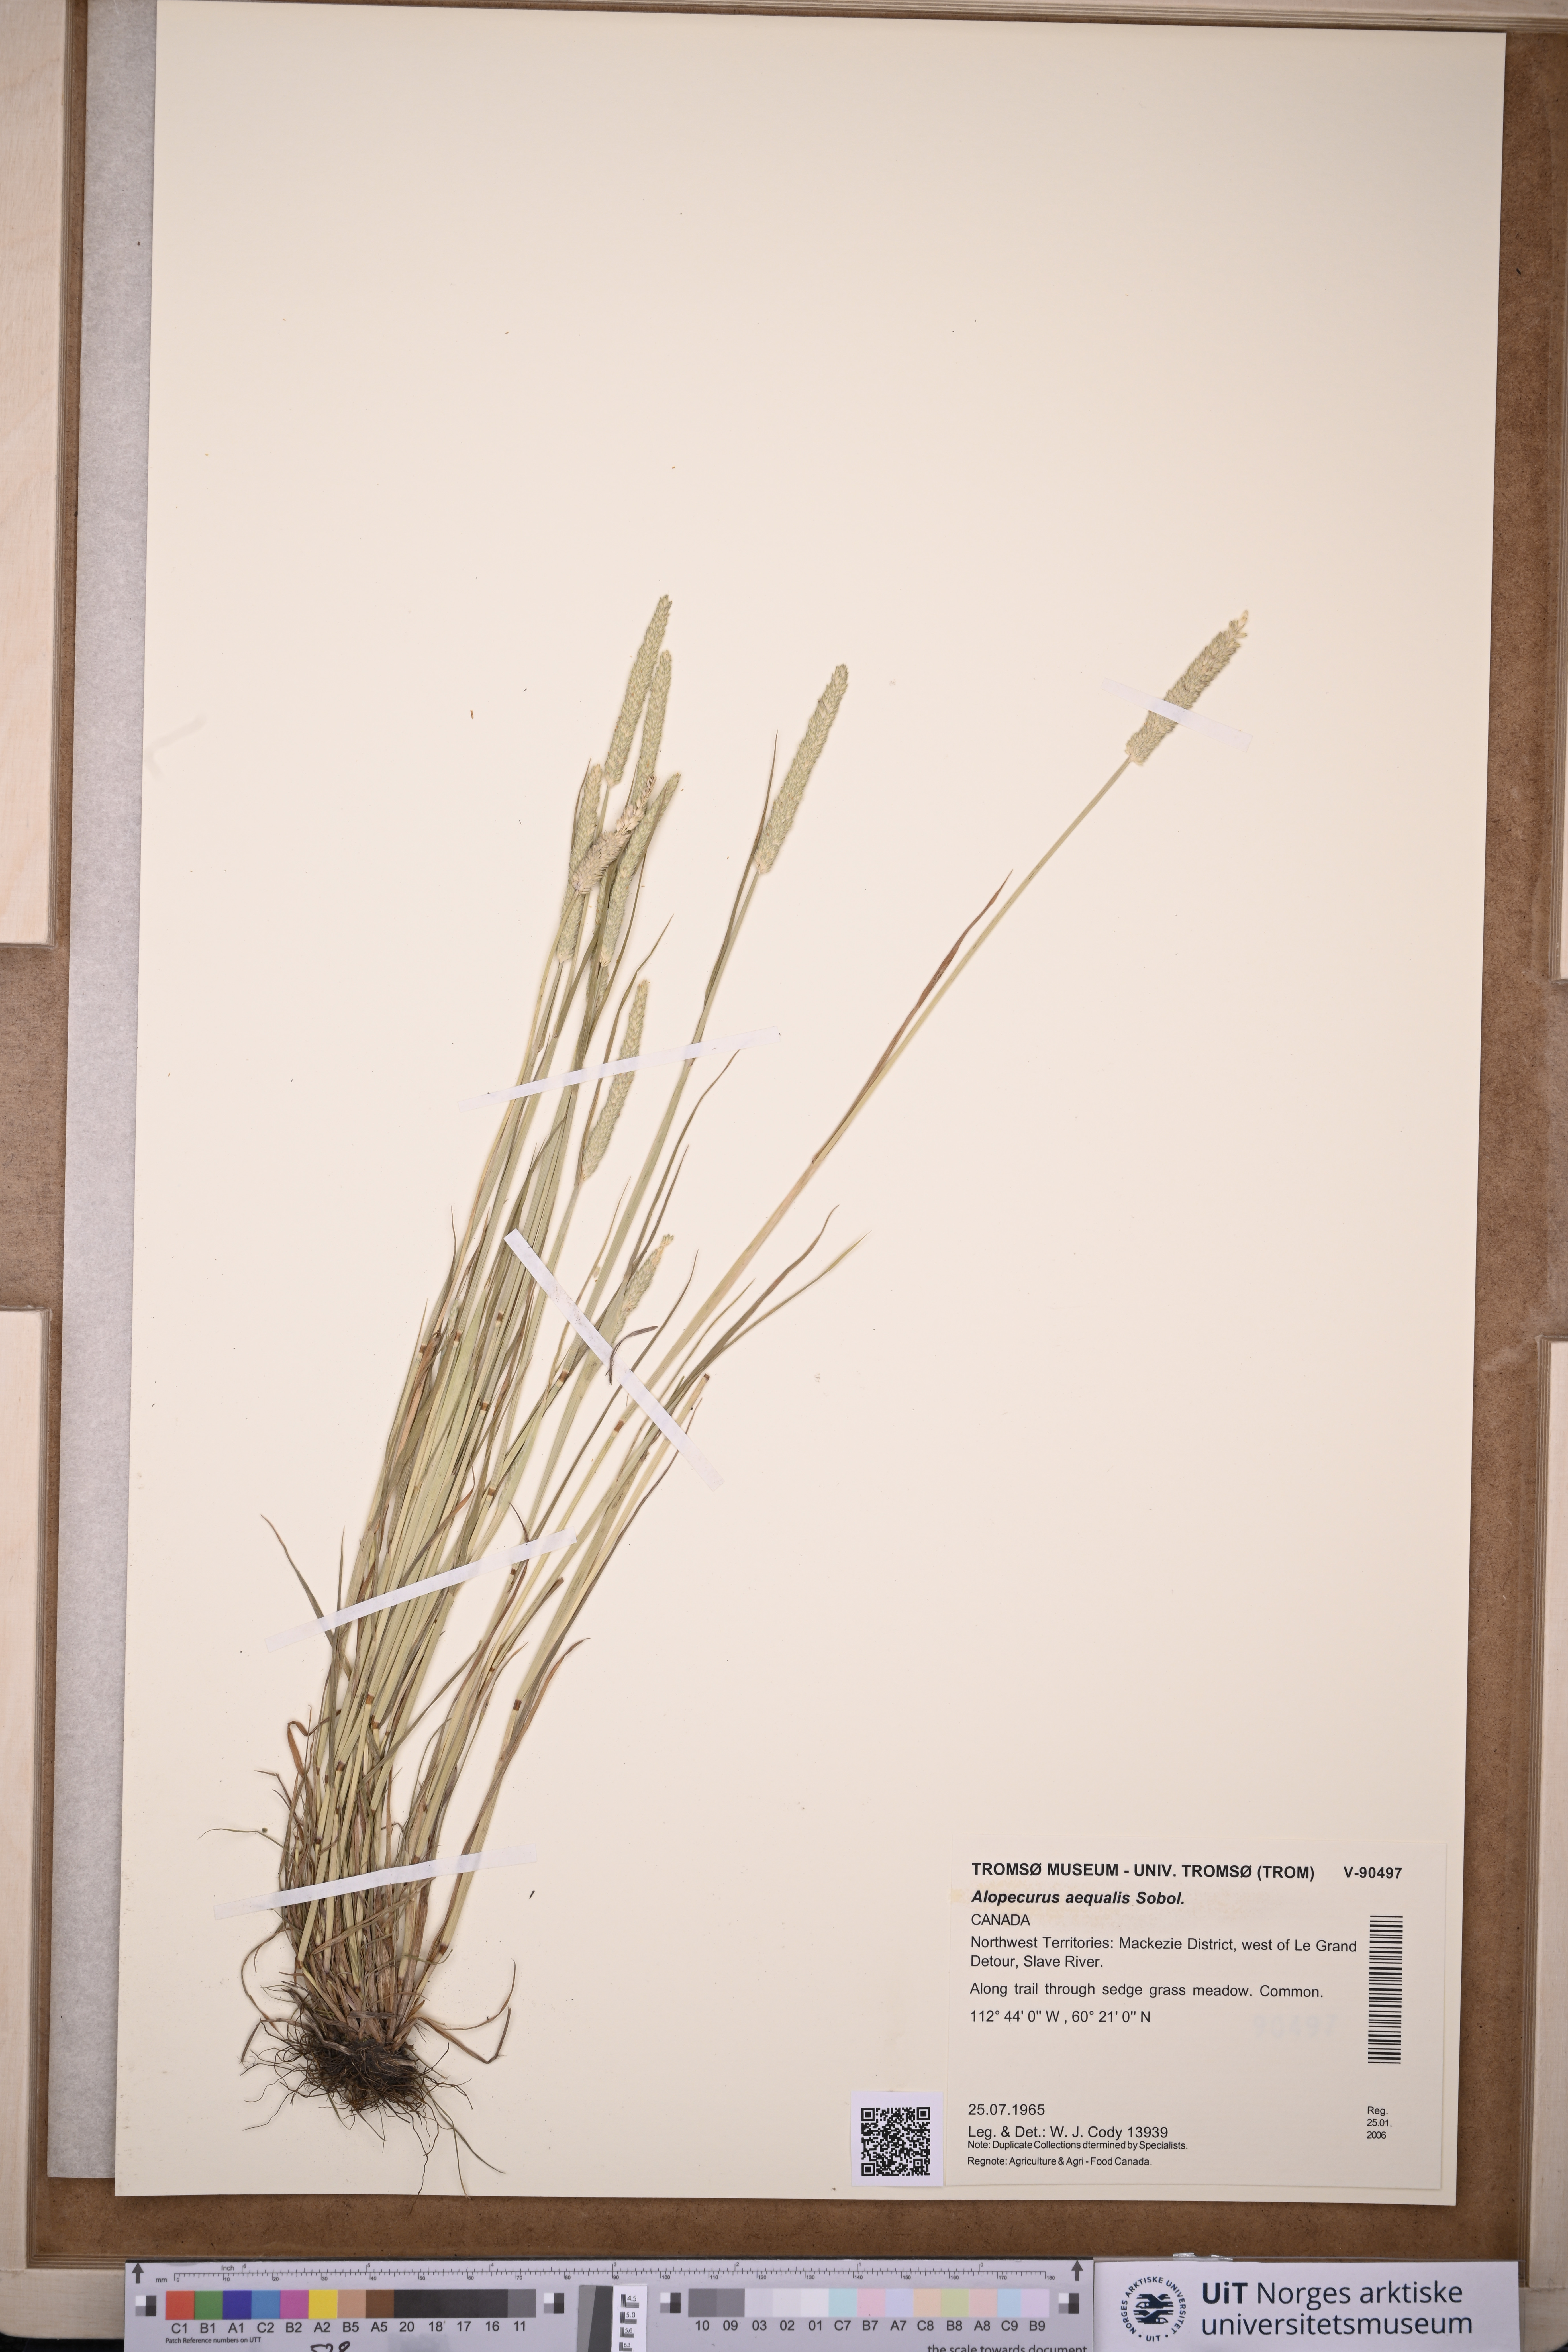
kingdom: Plantae
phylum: Tracheophyta
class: Liliopsida
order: Poales
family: Poaceae
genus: Alopecurus
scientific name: Alopecurus aequalis
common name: Orange foxtail
